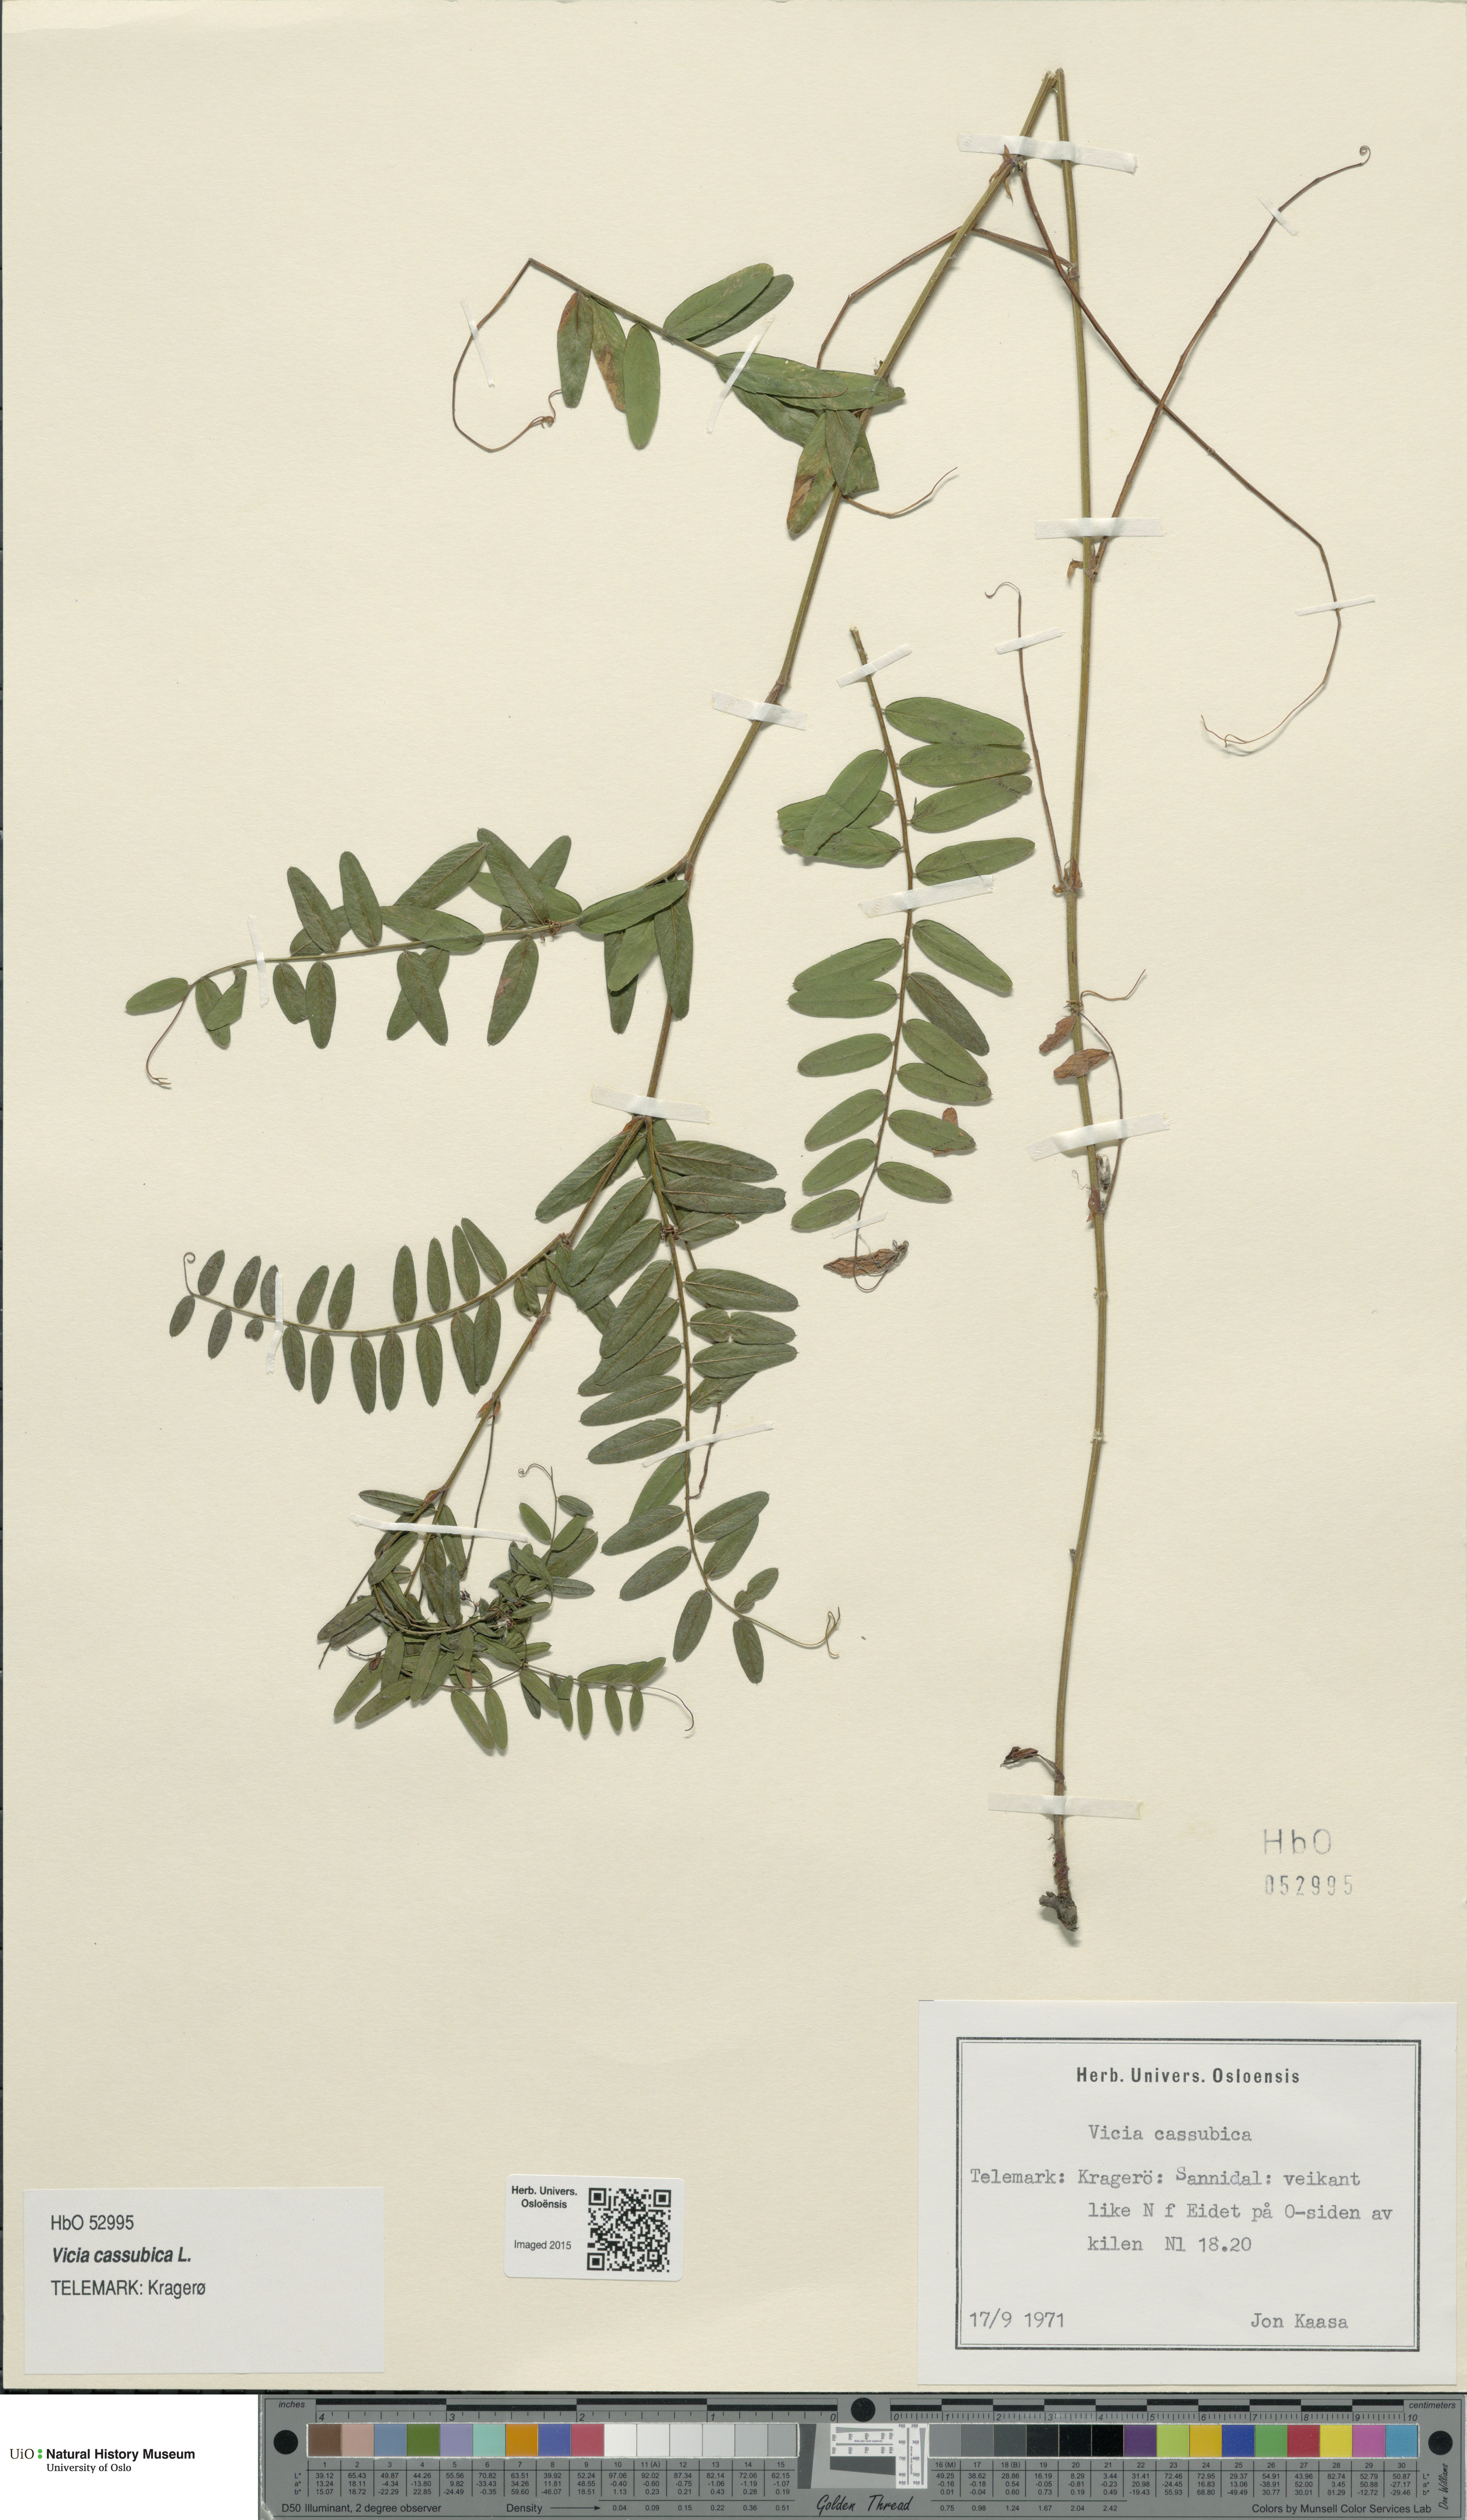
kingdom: Plantae
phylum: Tracheophyta
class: Magnoliopsida
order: Fabales
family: Fabaceae
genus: Vicia
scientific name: Vicia cassubica
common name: Danzig vetch
